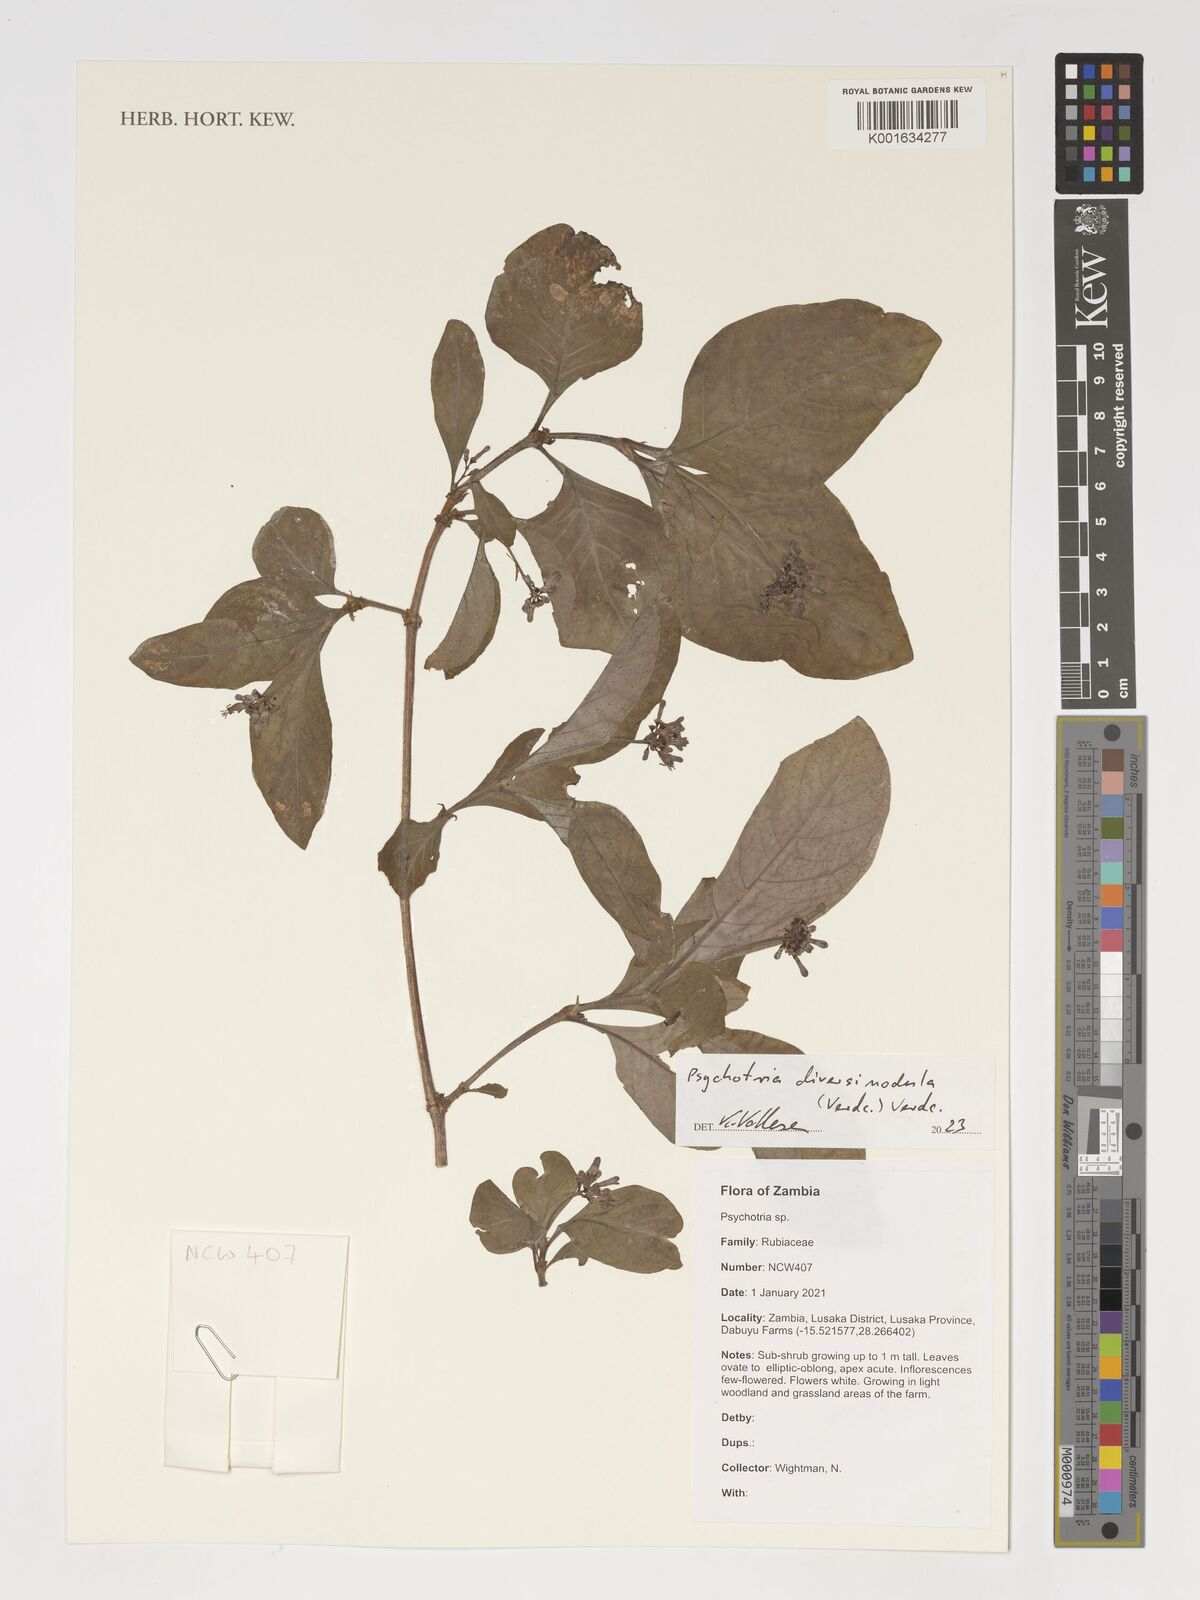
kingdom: Plantae
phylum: Tracheophyta
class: Magnoliopsida
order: Gentianales
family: Rubiaceae
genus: Psychotria
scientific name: Psychotria diversinodula
